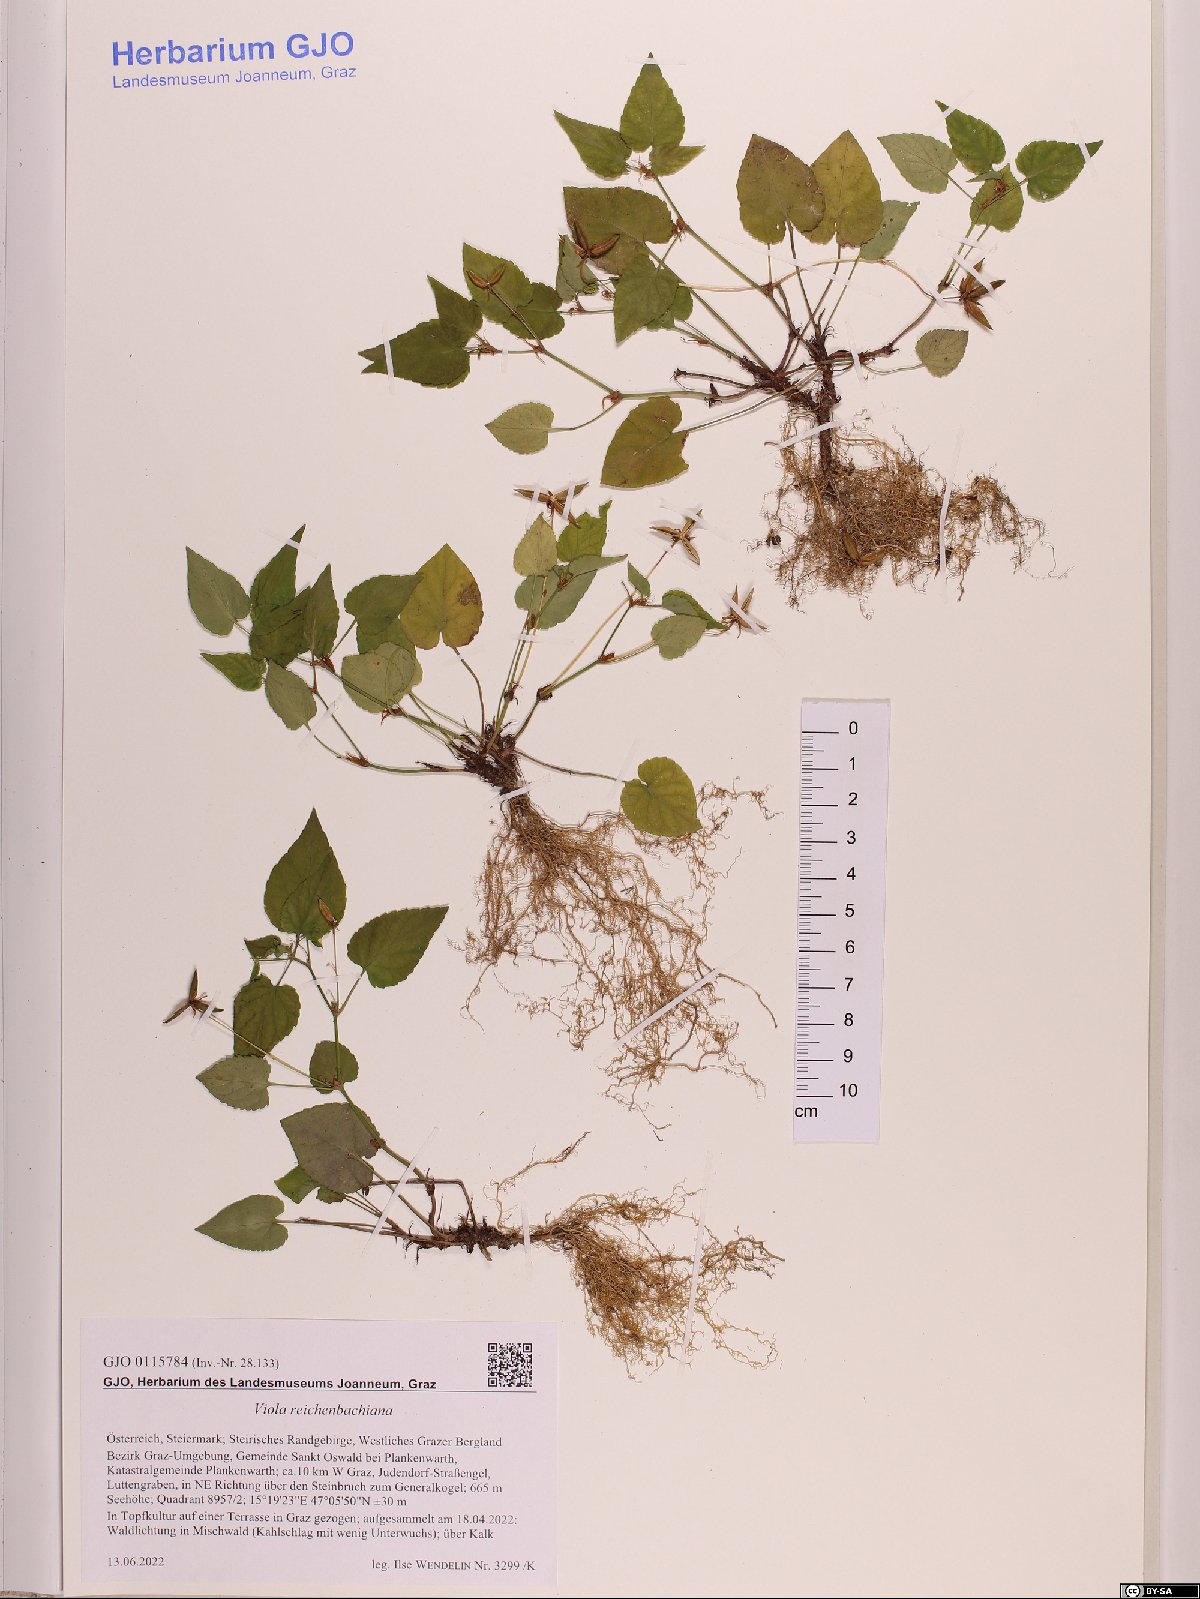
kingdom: Plantae
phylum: Tracheophyta
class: Magnoliopsida
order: Malpighiales
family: Violaceae
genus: Viola
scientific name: Viola reichenbachiana
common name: Early dog-violet
